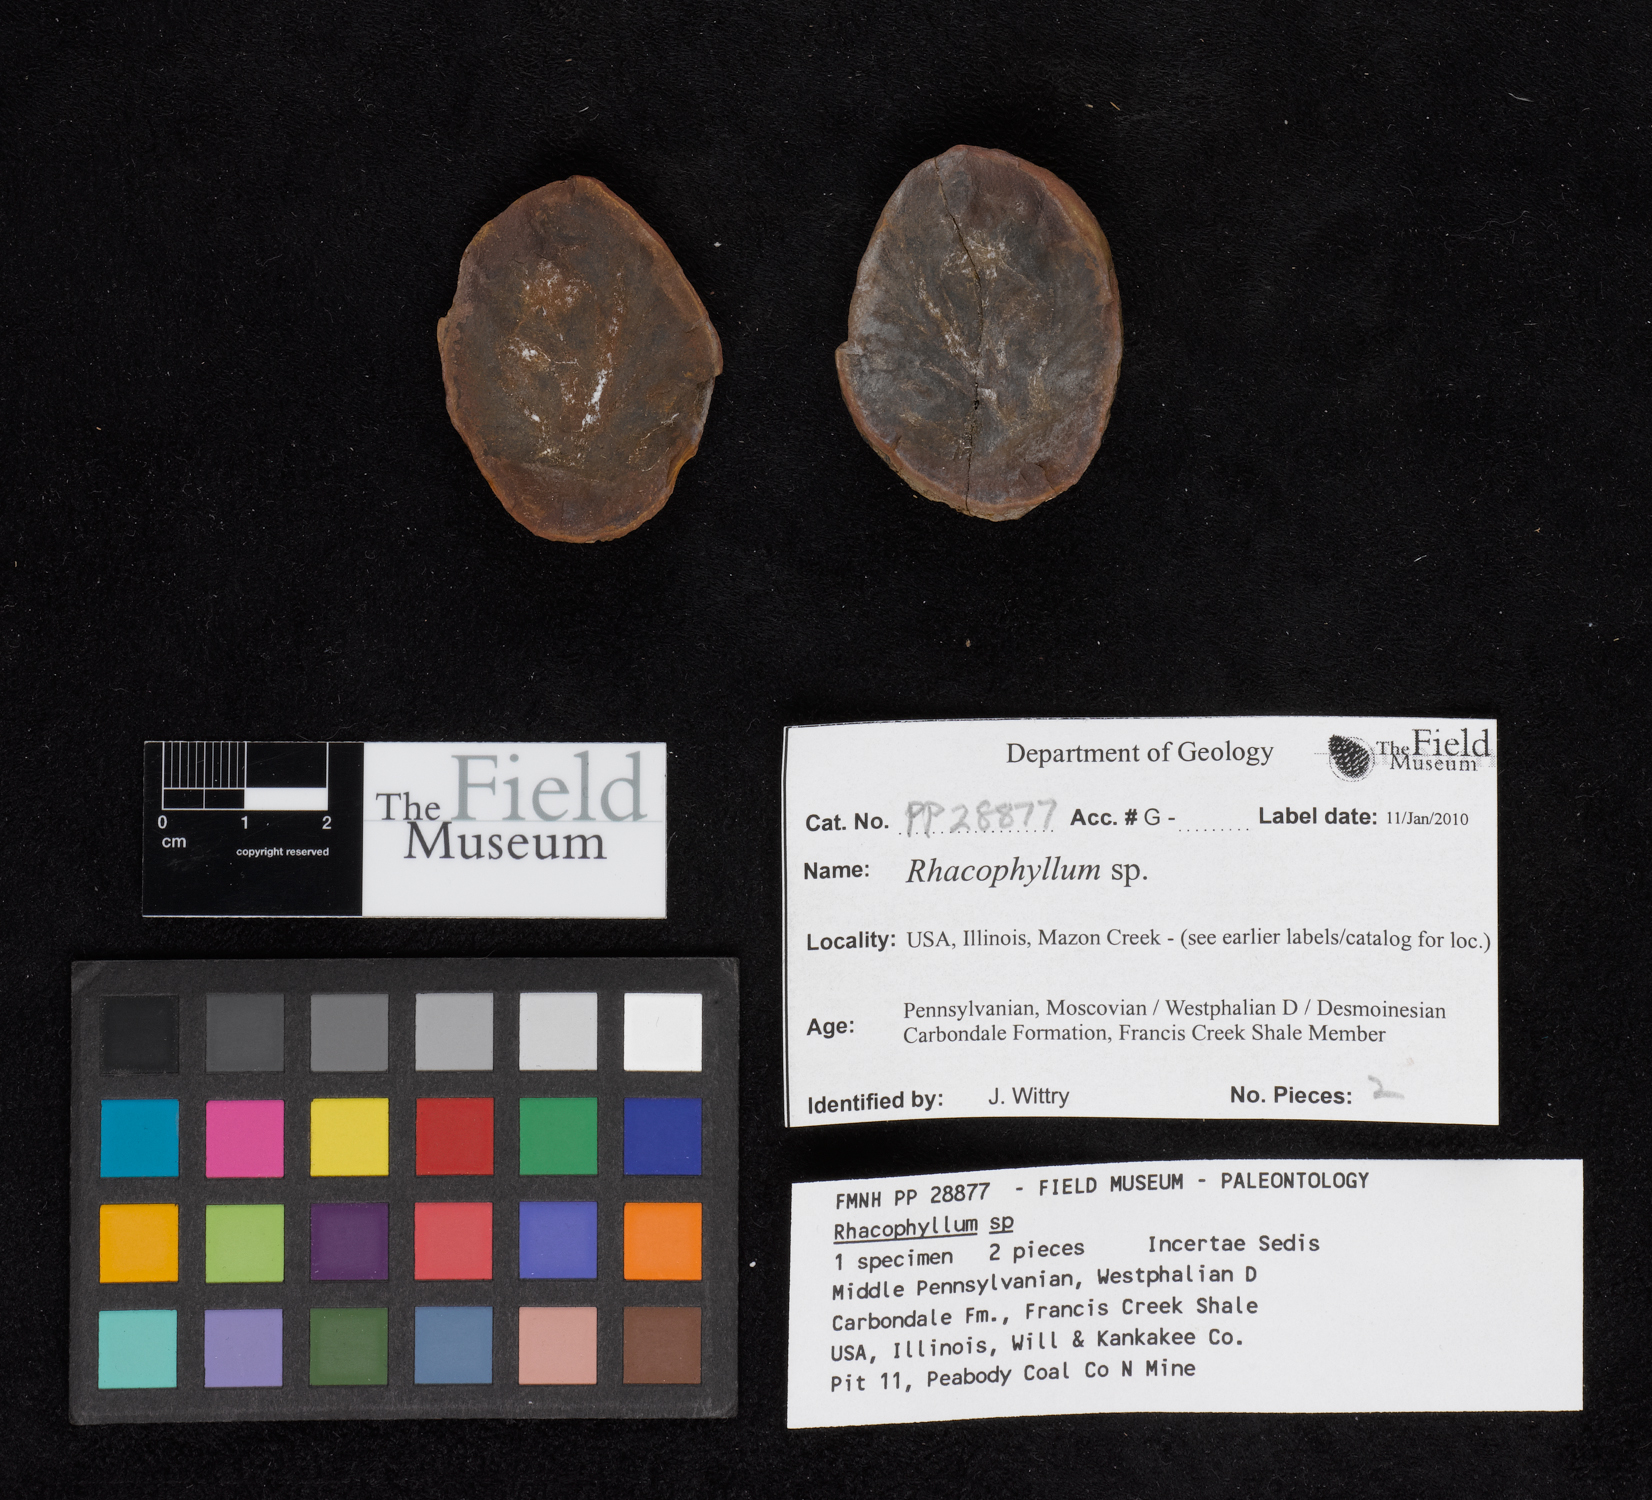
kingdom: Plantae
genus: Rhacophyllum
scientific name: Rhacophyllum
